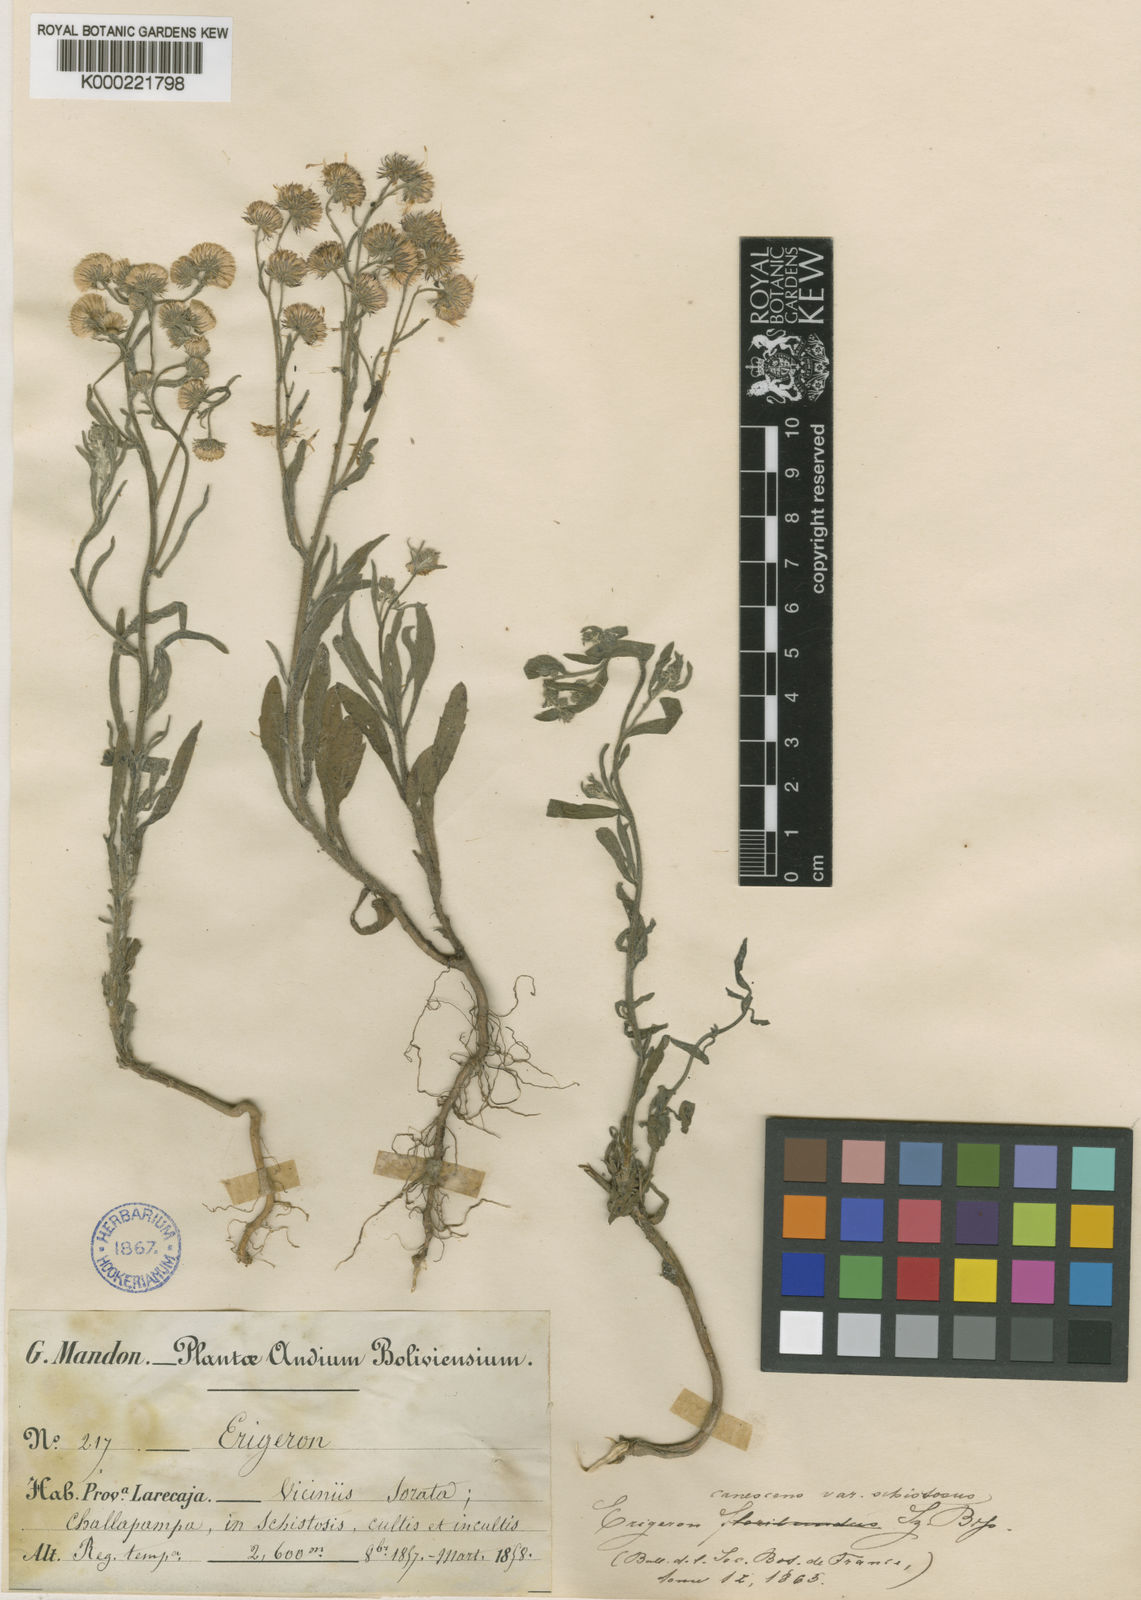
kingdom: Plantae
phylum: Tracheophyta
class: Magnoliopsida
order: Asterales
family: Asteraceae
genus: Erigeron
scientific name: Erigeron deserticolus
